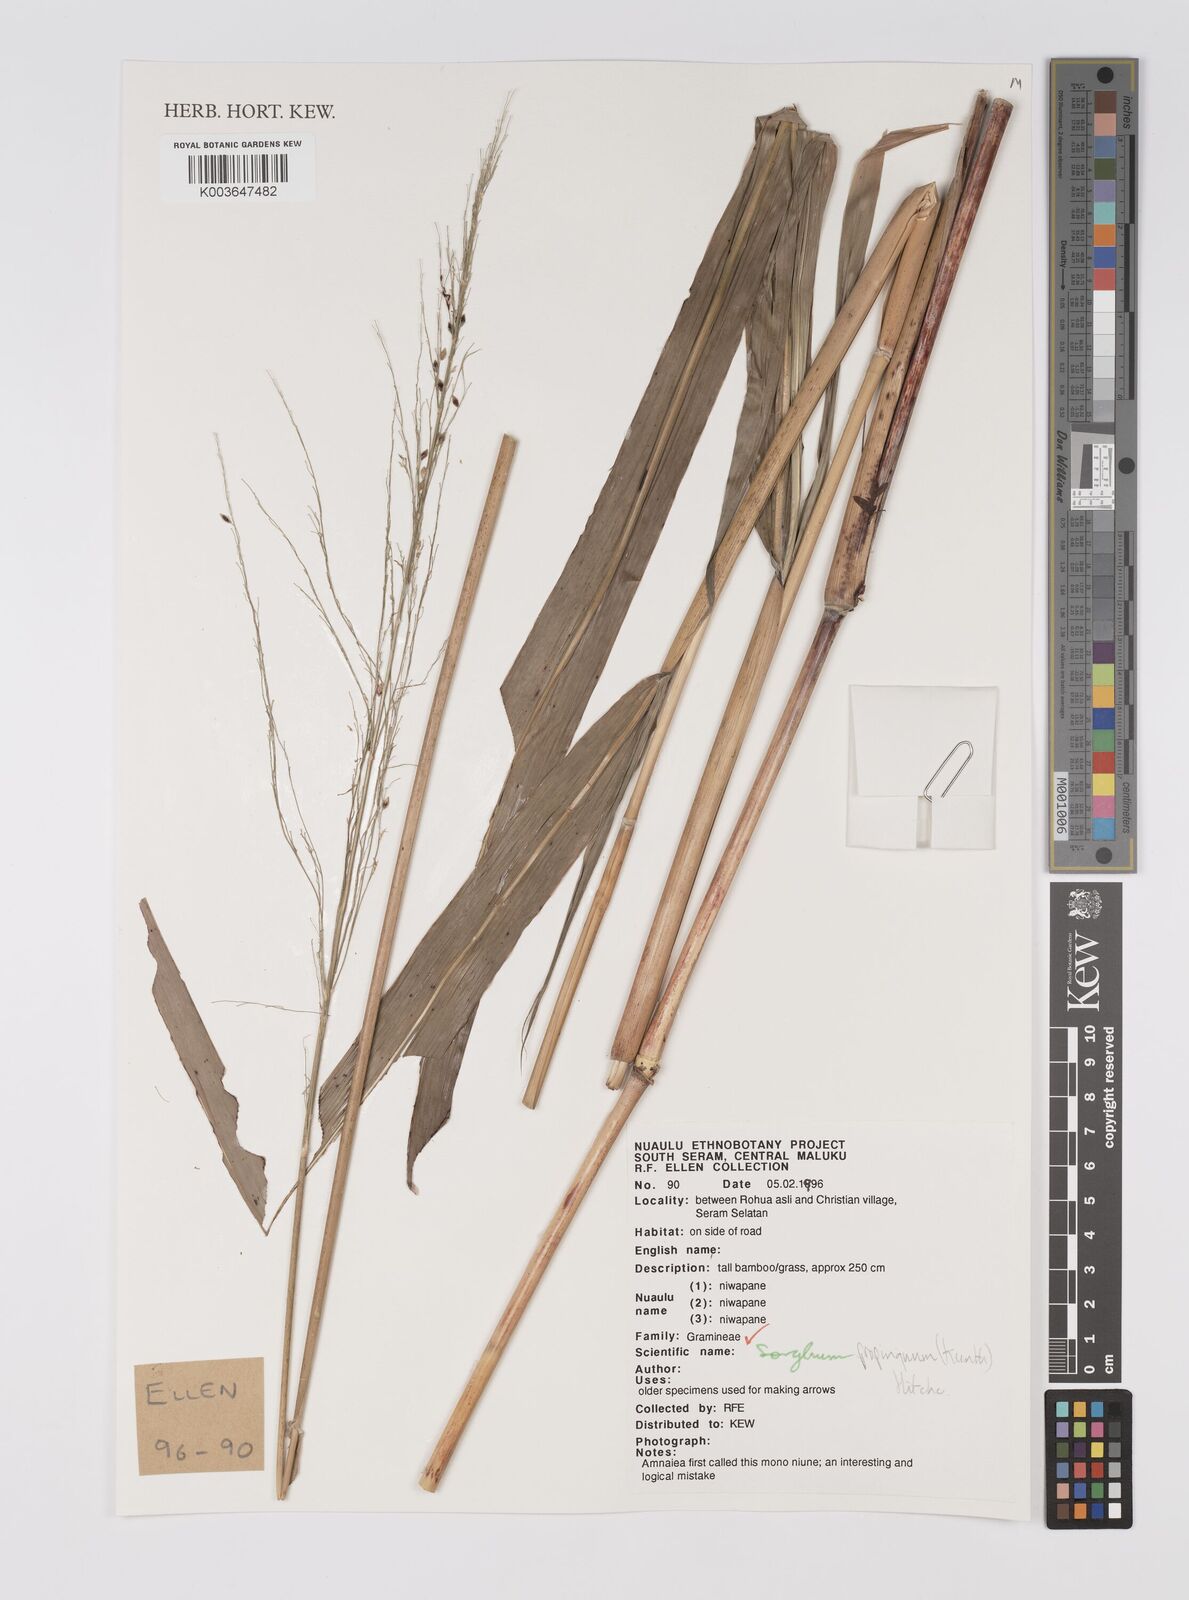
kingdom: Plantae
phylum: Tracheophyta
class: Liliopsida
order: Poales
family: Poaceae
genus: Sorghum
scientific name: Sorghum propinquum
